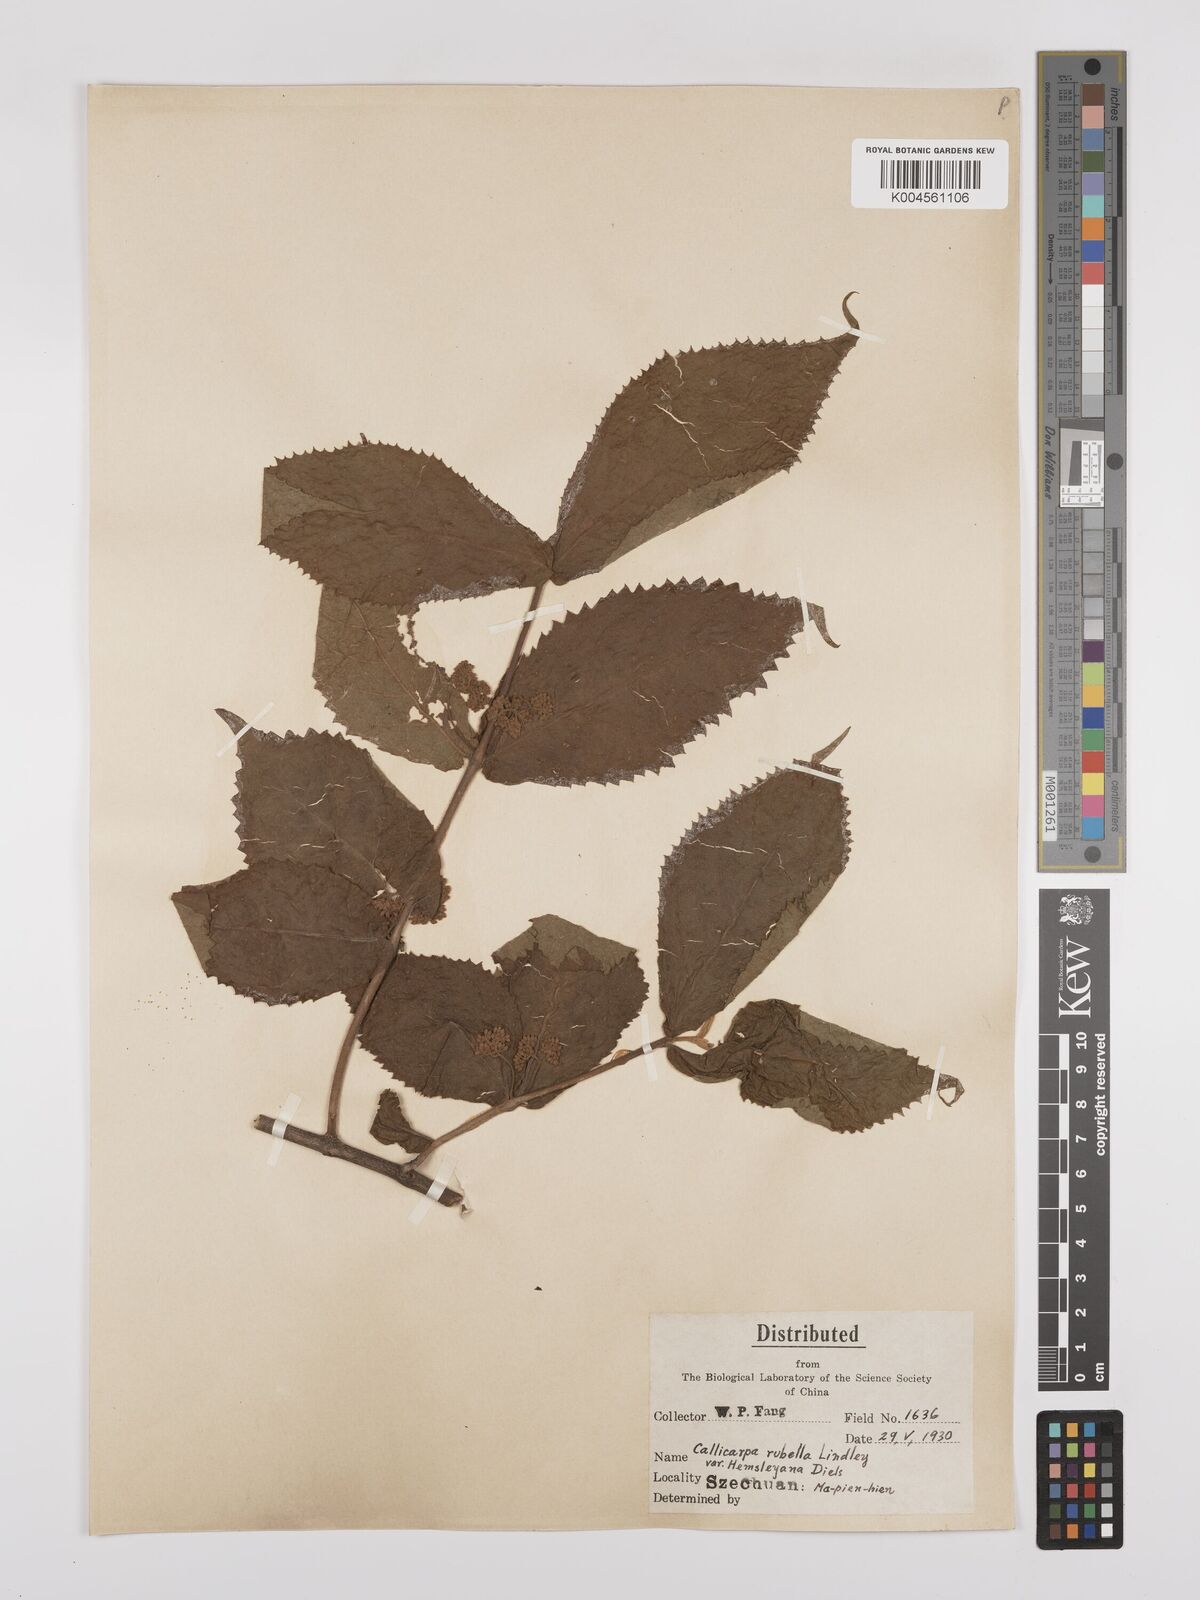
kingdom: Plantae
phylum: Tracheophyta
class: Magnoliopsida
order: Lamiales
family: Lamiaceae
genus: Callicarpa
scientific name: Callicarpa rubella
